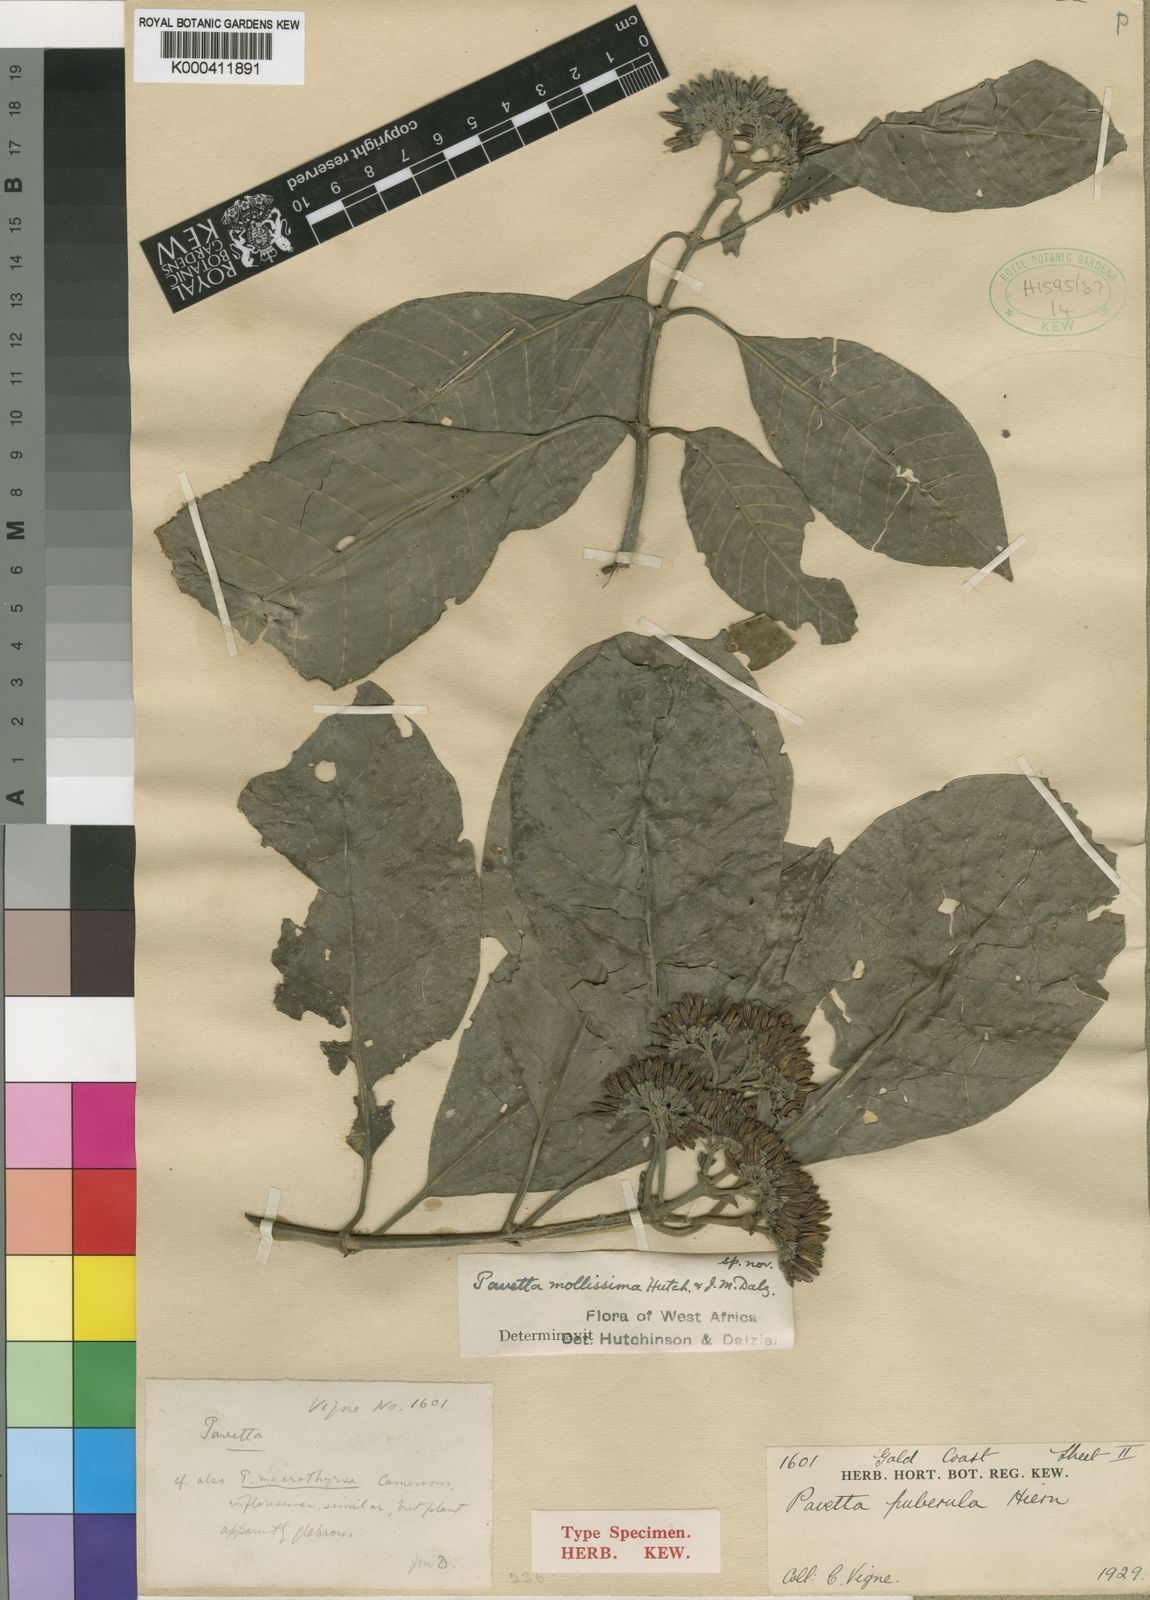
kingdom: Plantae
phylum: Tracheophyta
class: Magnoliopsida
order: Gentianales
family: Rubiaceae
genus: Pavetta
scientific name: Pavetta mollissima
